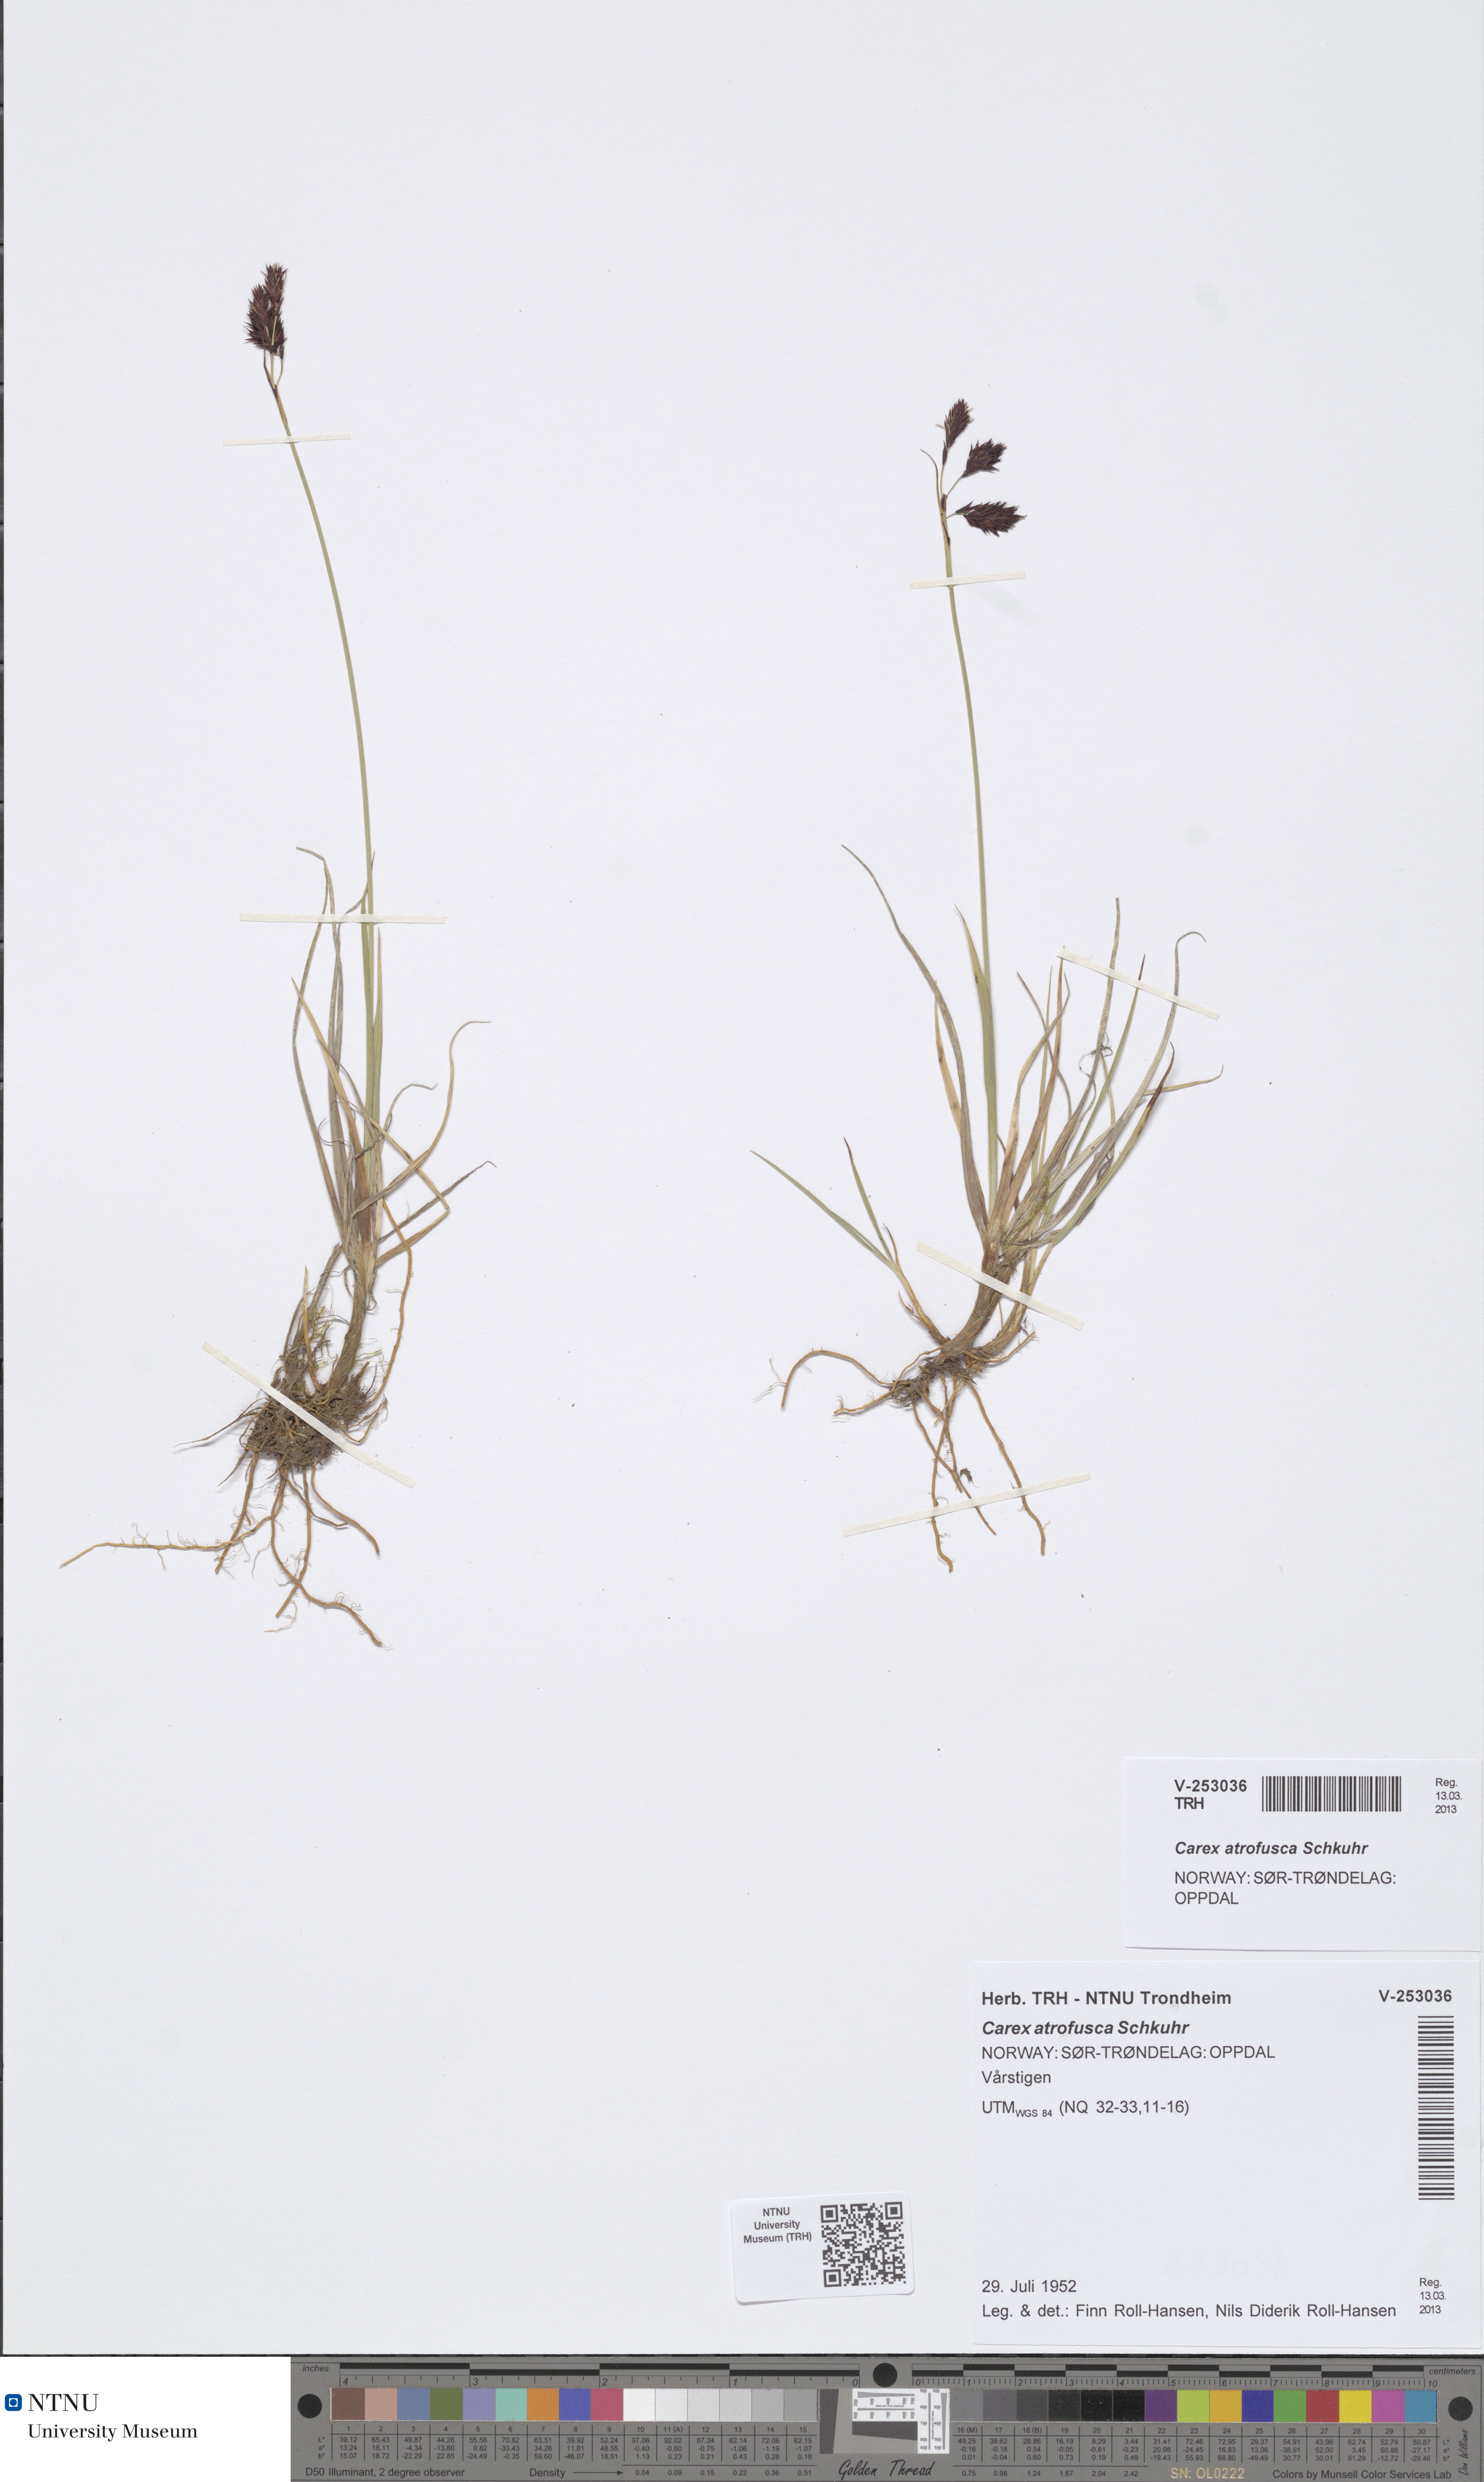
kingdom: Plantae
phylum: Tracheophyta
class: Liliopsida
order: Poales
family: Cyperaceae
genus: Carex
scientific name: Carex atrofusca
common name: Scorched alpine-sedge
